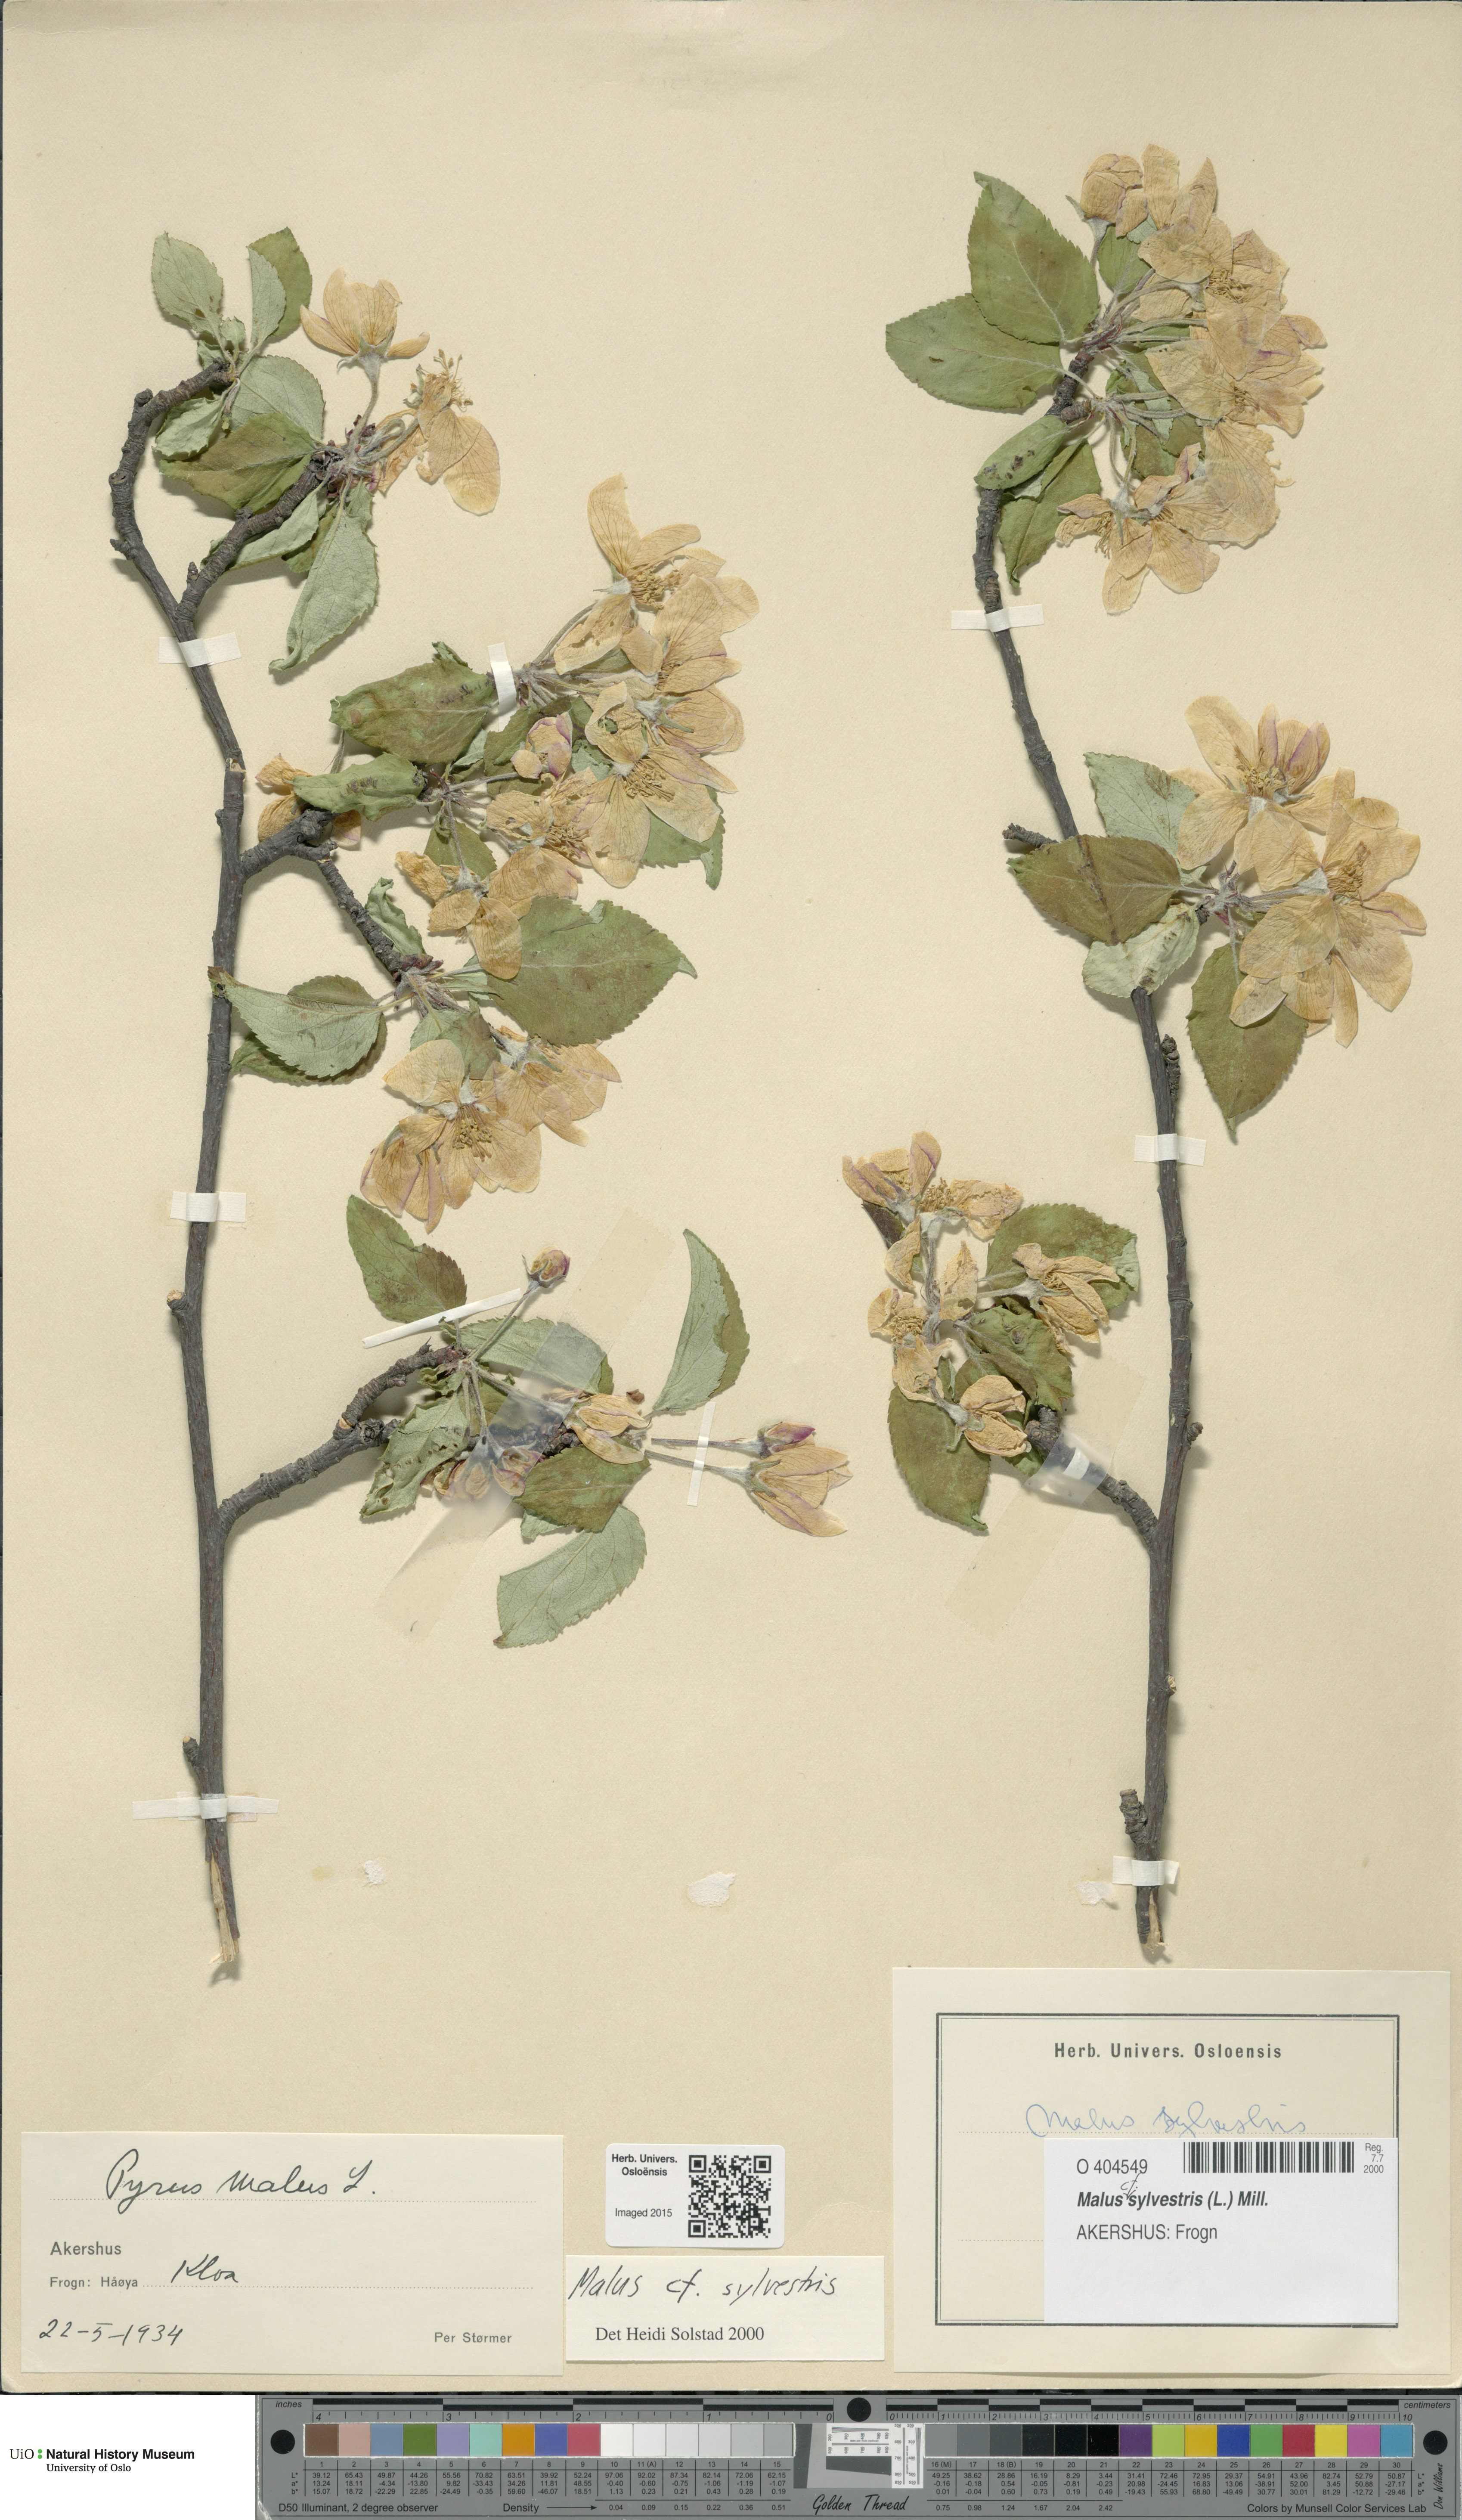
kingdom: Plantae
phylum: Tracheophyta
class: Magnoliopsida
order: Rosales
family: Rosaceae
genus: Malus
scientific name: Malus sylvestris
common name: Crab apple
